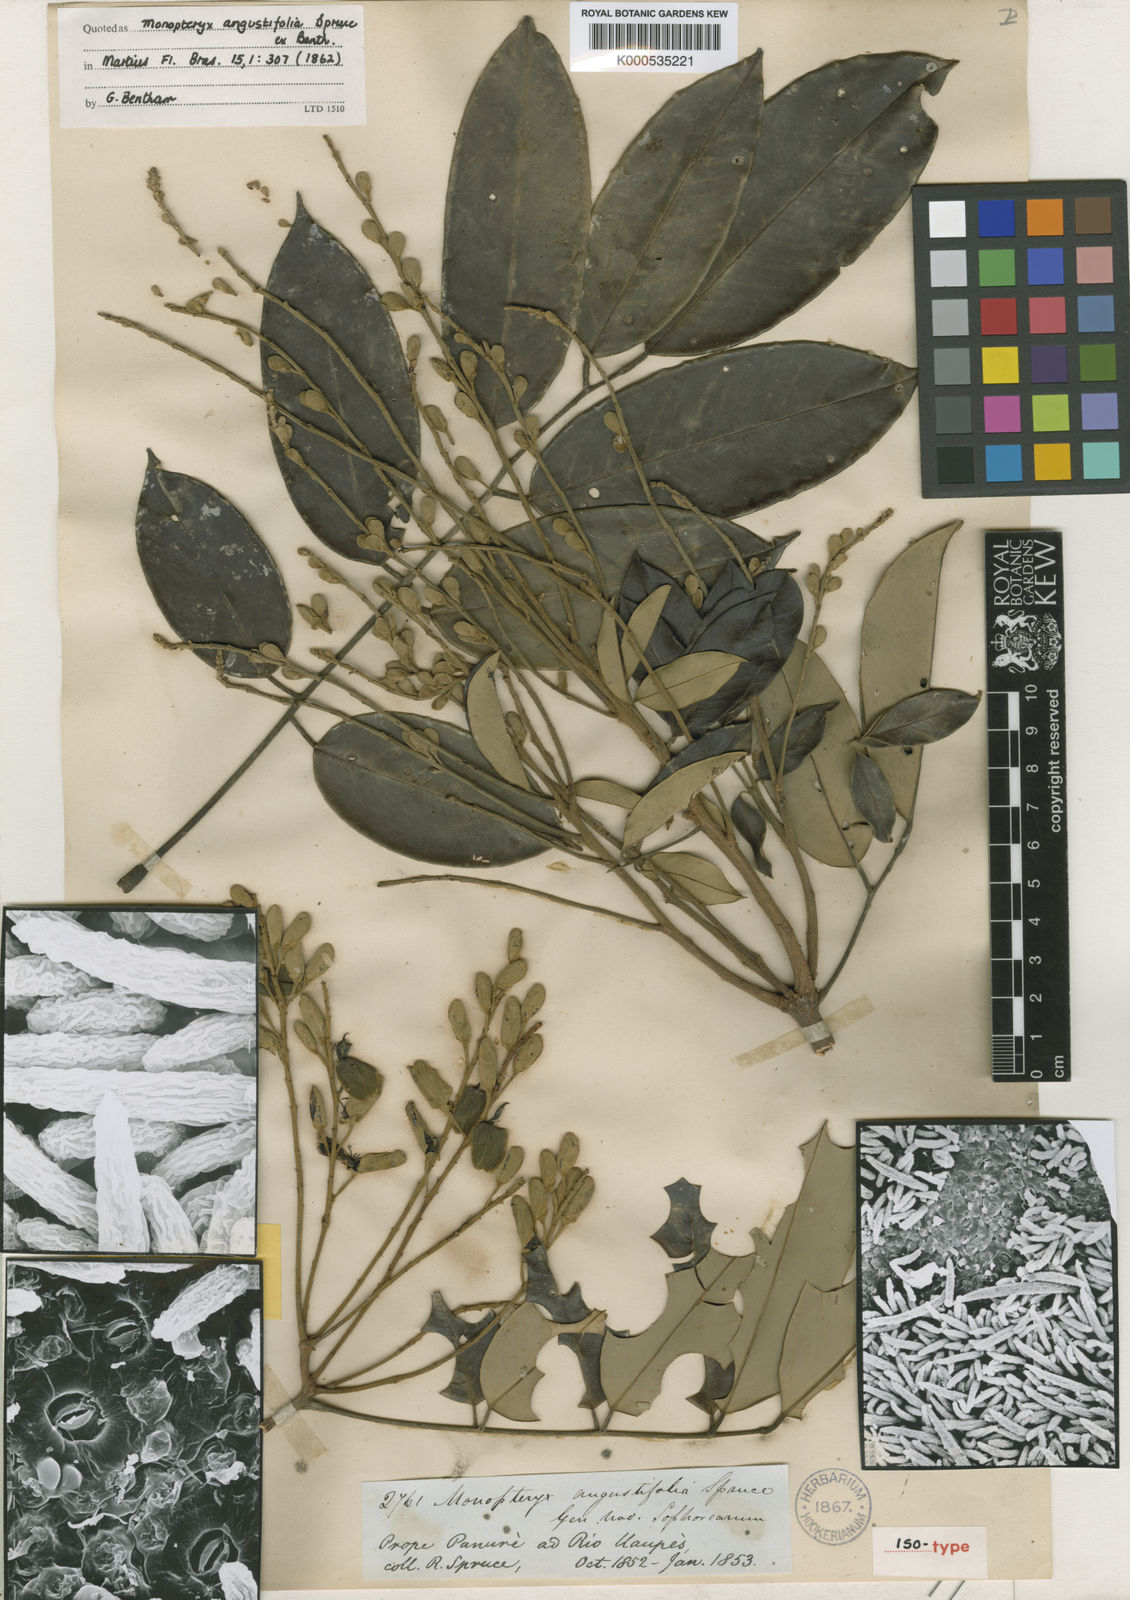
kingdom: Plantae
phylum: Tracheophyta
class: Magnoliopsida
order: Fabales
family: Fabaceae
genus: Monopteryx
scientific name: Monopteryx angustifolia
